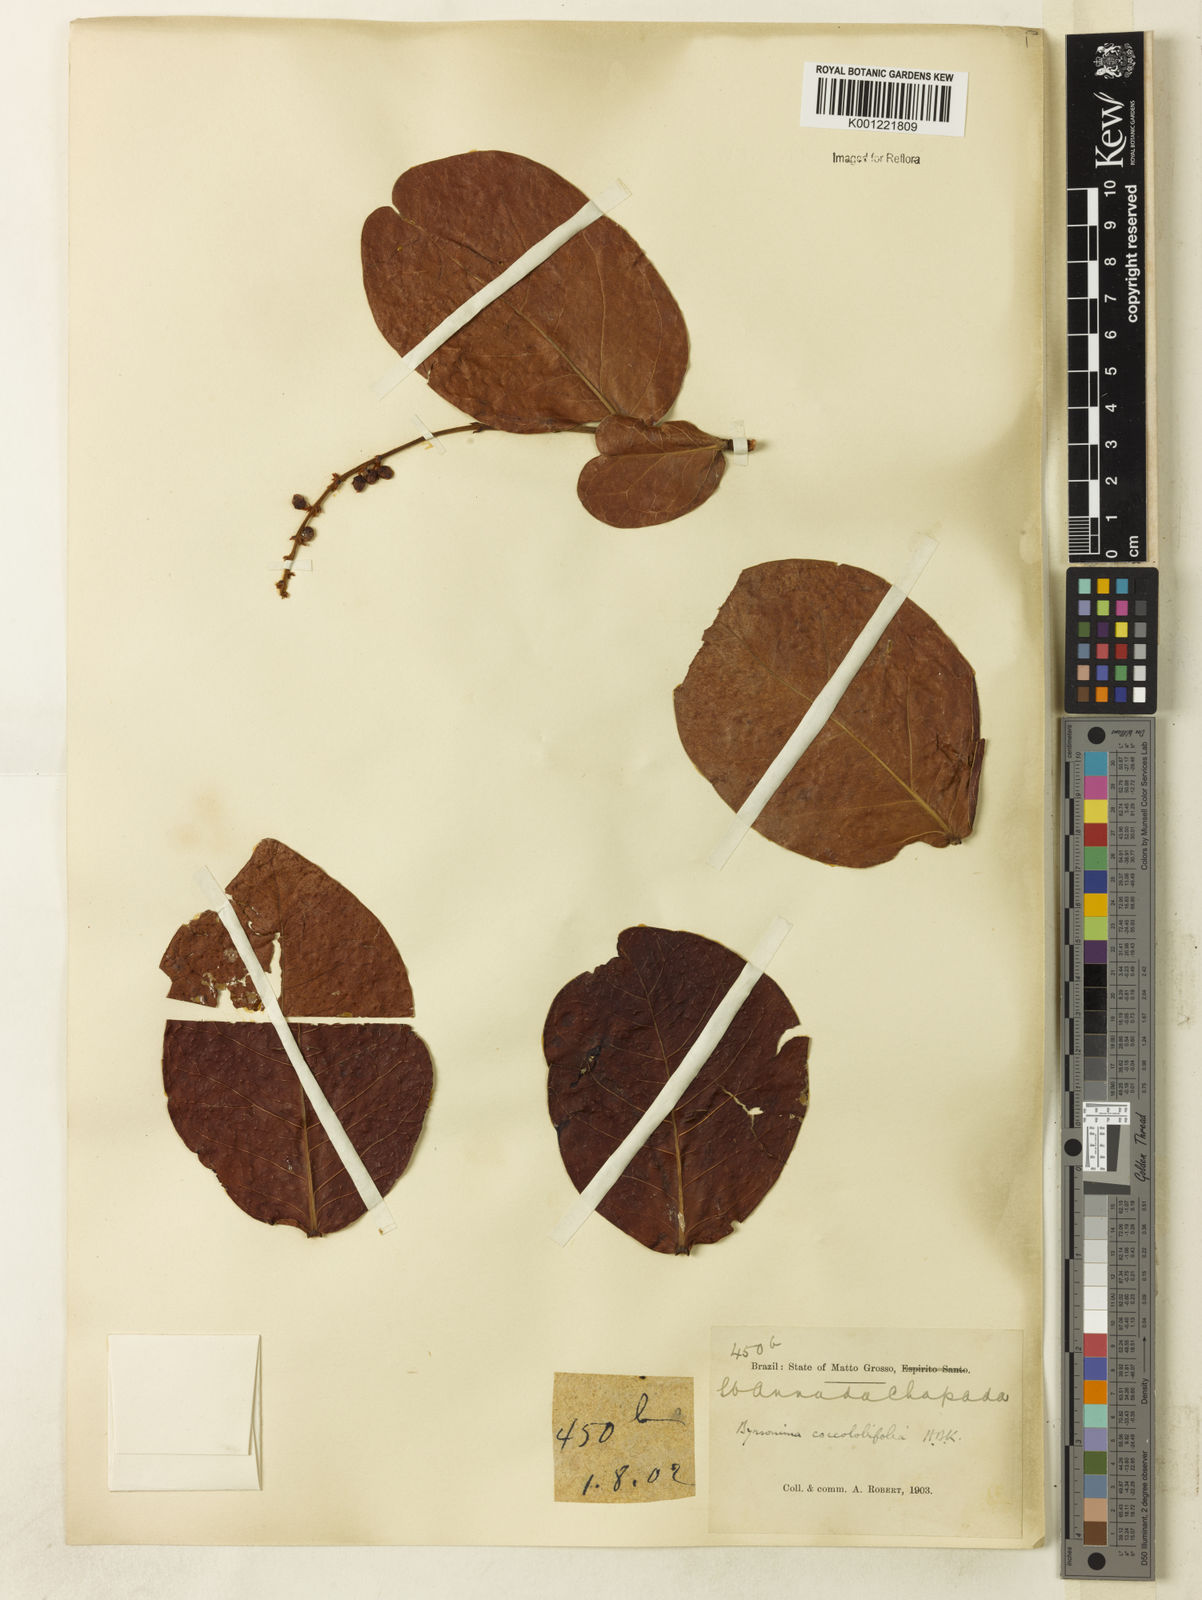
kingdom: Plantae
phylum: Tracheophyta
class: Magnoliopsida
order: Malpighiales
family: Malpighiaceae
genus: Byrsonima
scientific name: Byrsonima coccolobifolia
